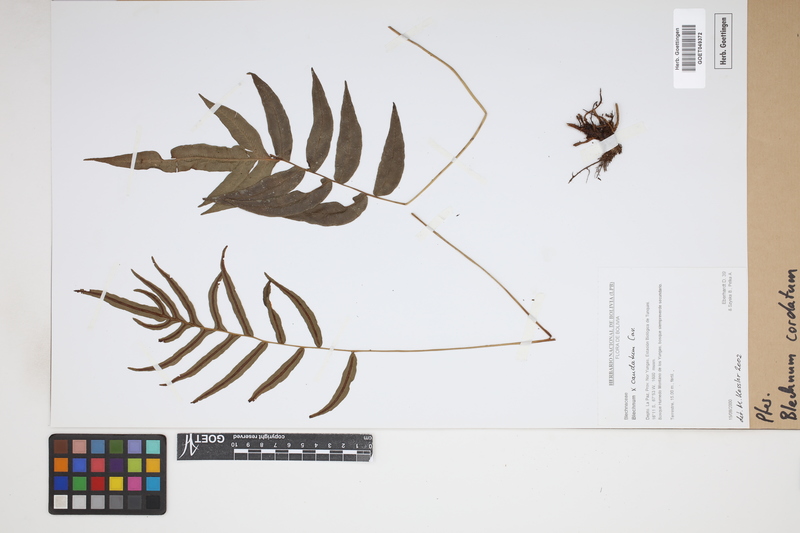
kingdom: Plantae
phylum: Tracheophyta
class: Polypodiopsida
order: Polypodiales
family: Blechnaceae
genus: Parablechnum
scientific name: Parablechnum cordatum
